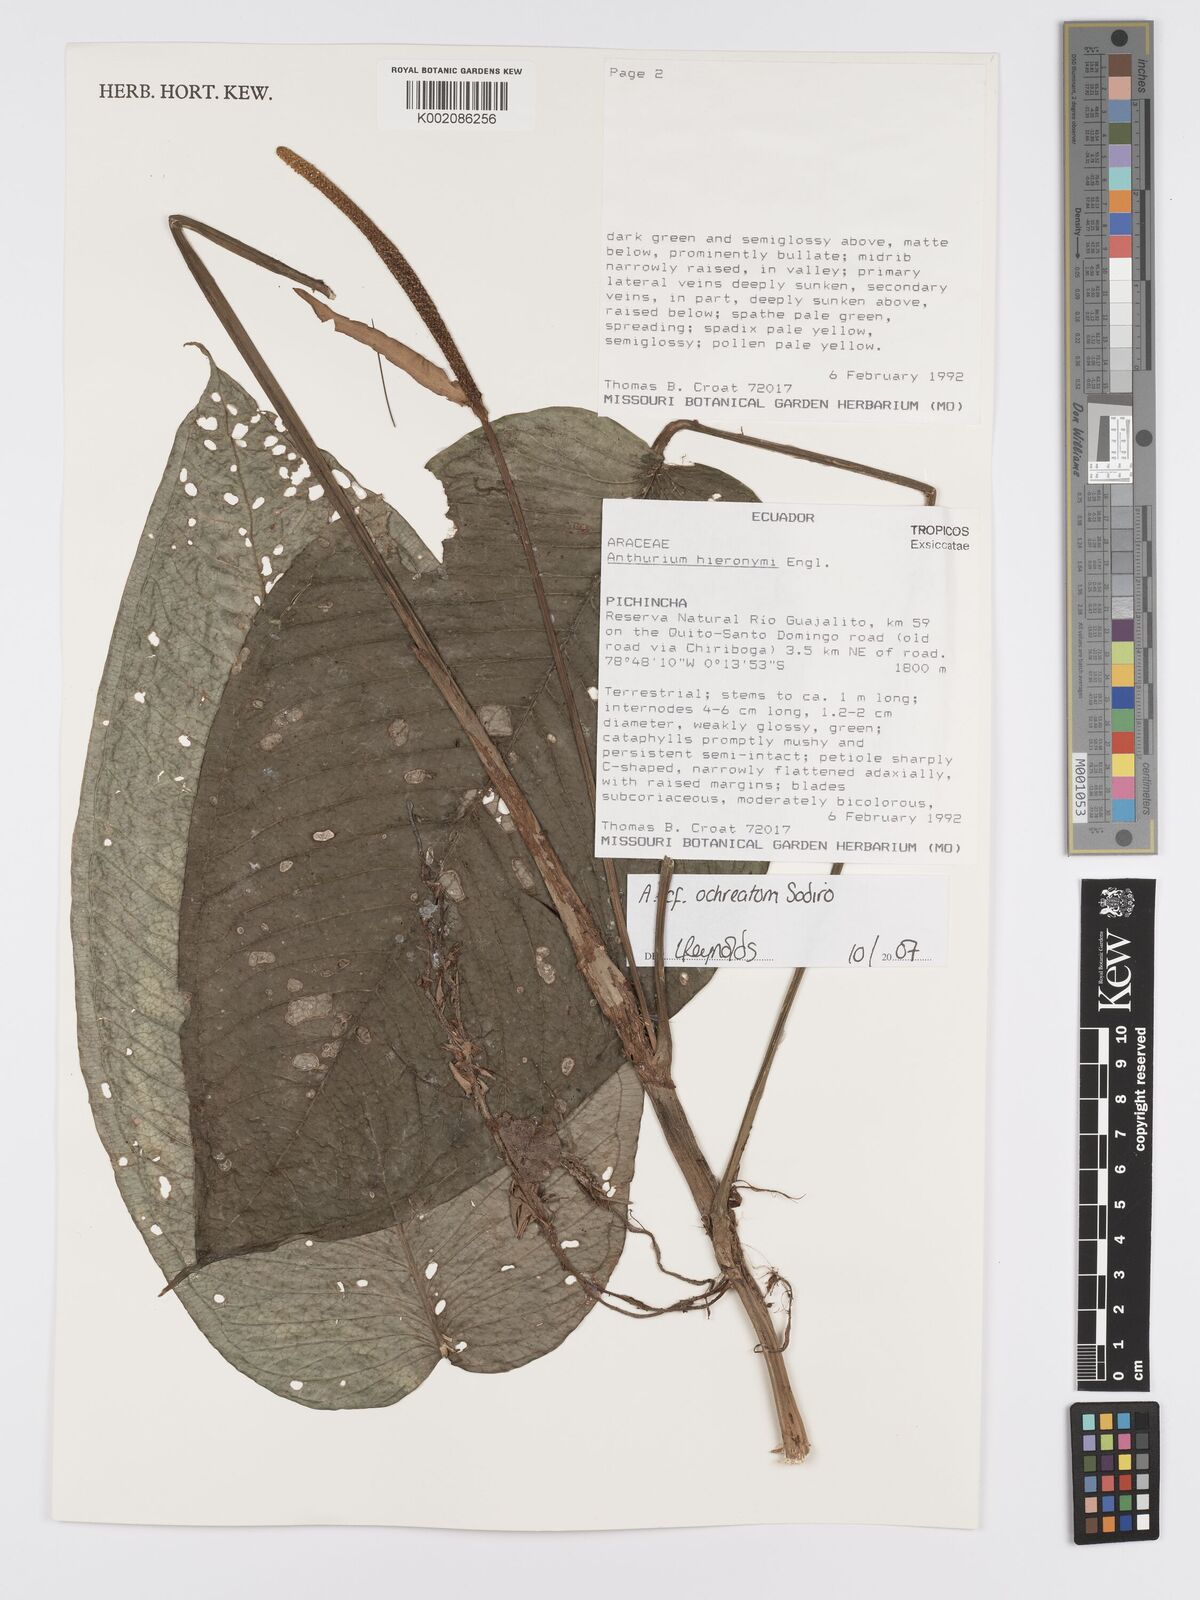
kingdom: Plantae
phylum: Tracheophyta
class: Liliopsida
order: Alismatales
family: Araceae
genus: Anthurium
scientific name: Anthurium hieronymi
